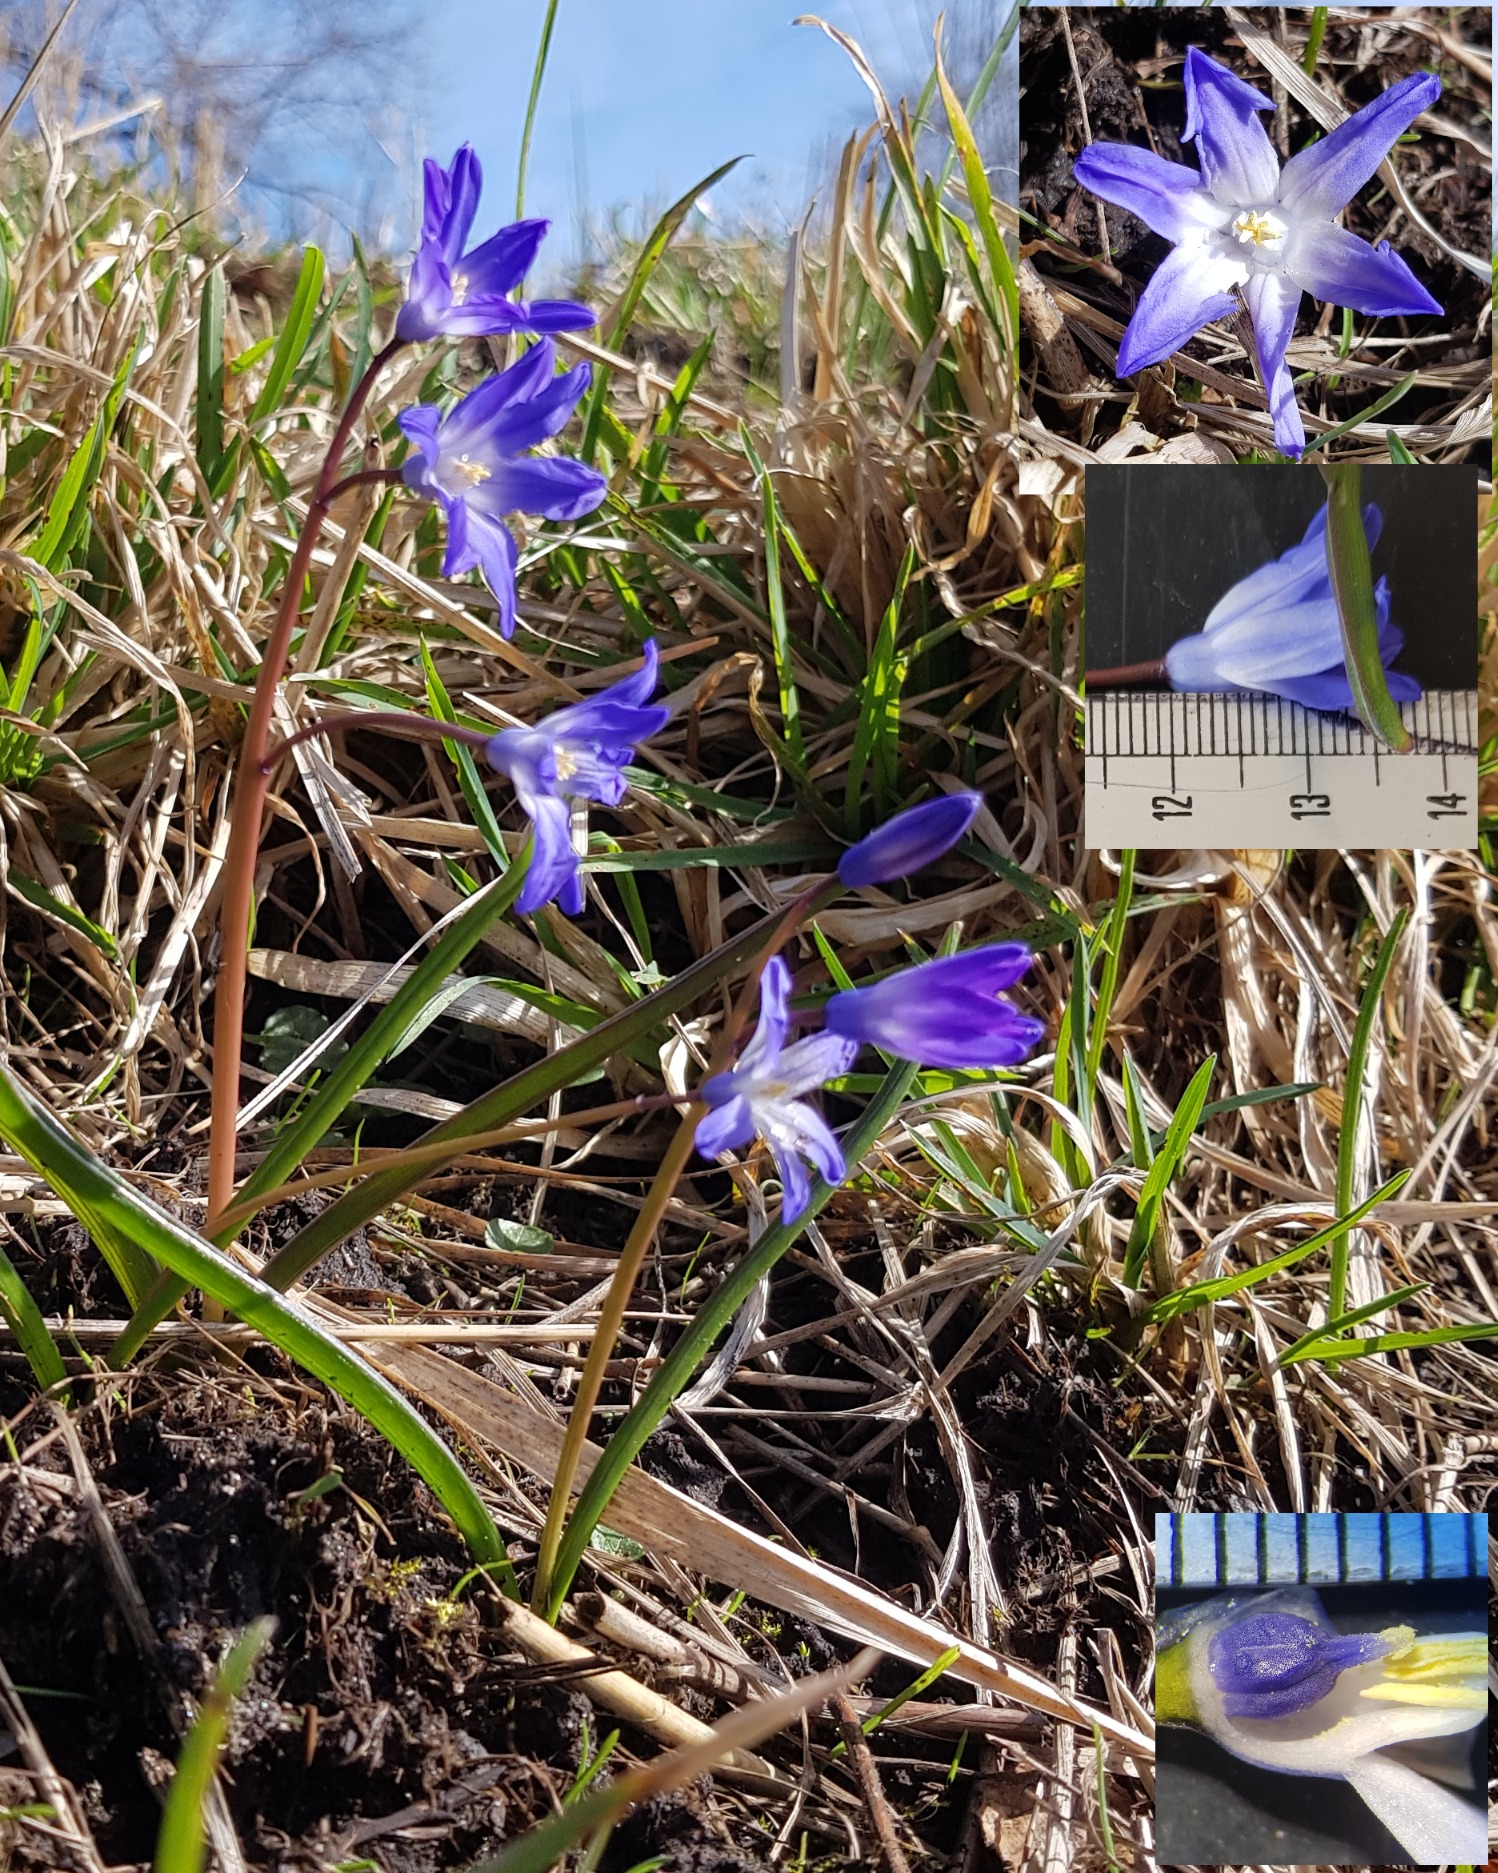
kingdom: Plantae
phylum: Tracheophyta
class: Liliopsida
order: Asparagales
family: Asparagaceae
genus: Scilla
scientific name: Scilla forbesii
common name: Almindelig snepryd
